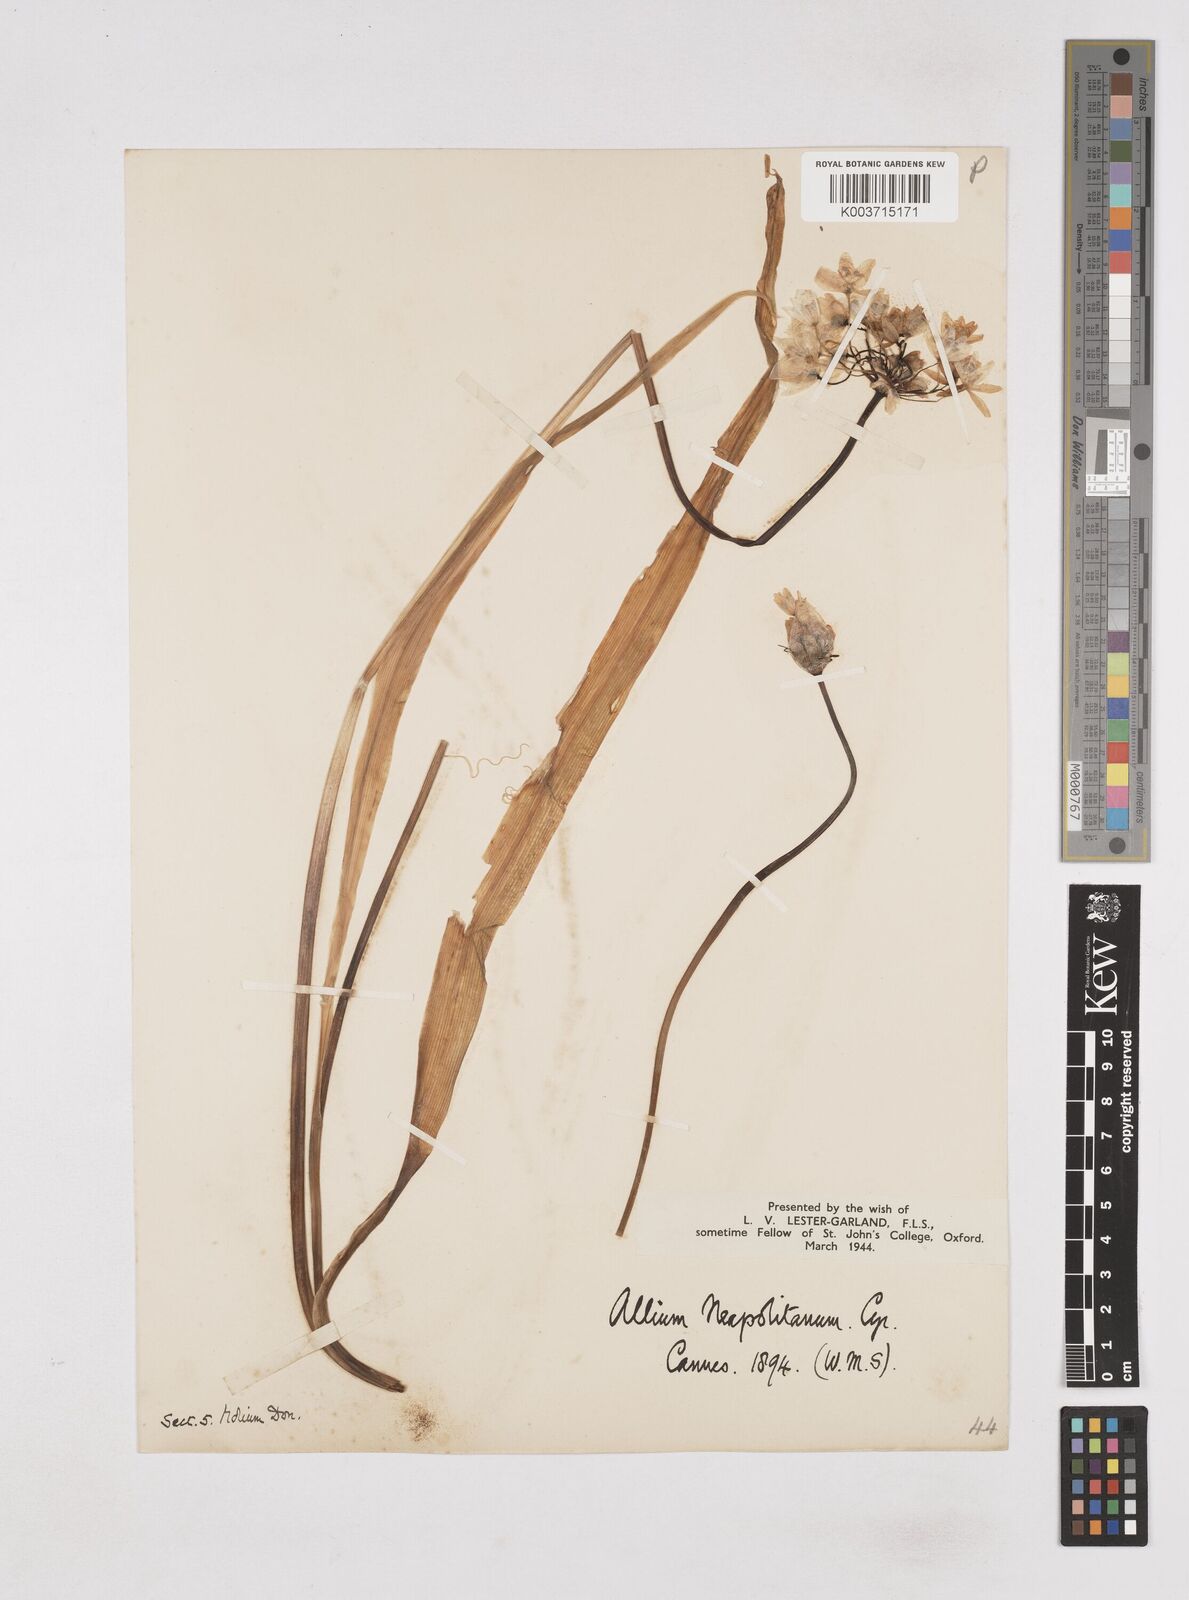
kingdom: Plantae
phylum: Tracheophyta
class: Liliopsida
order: Asparagales
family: Amaryllidaceae
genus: Allium
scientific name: Allium neapolitanum
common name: Neapolitan garlic
